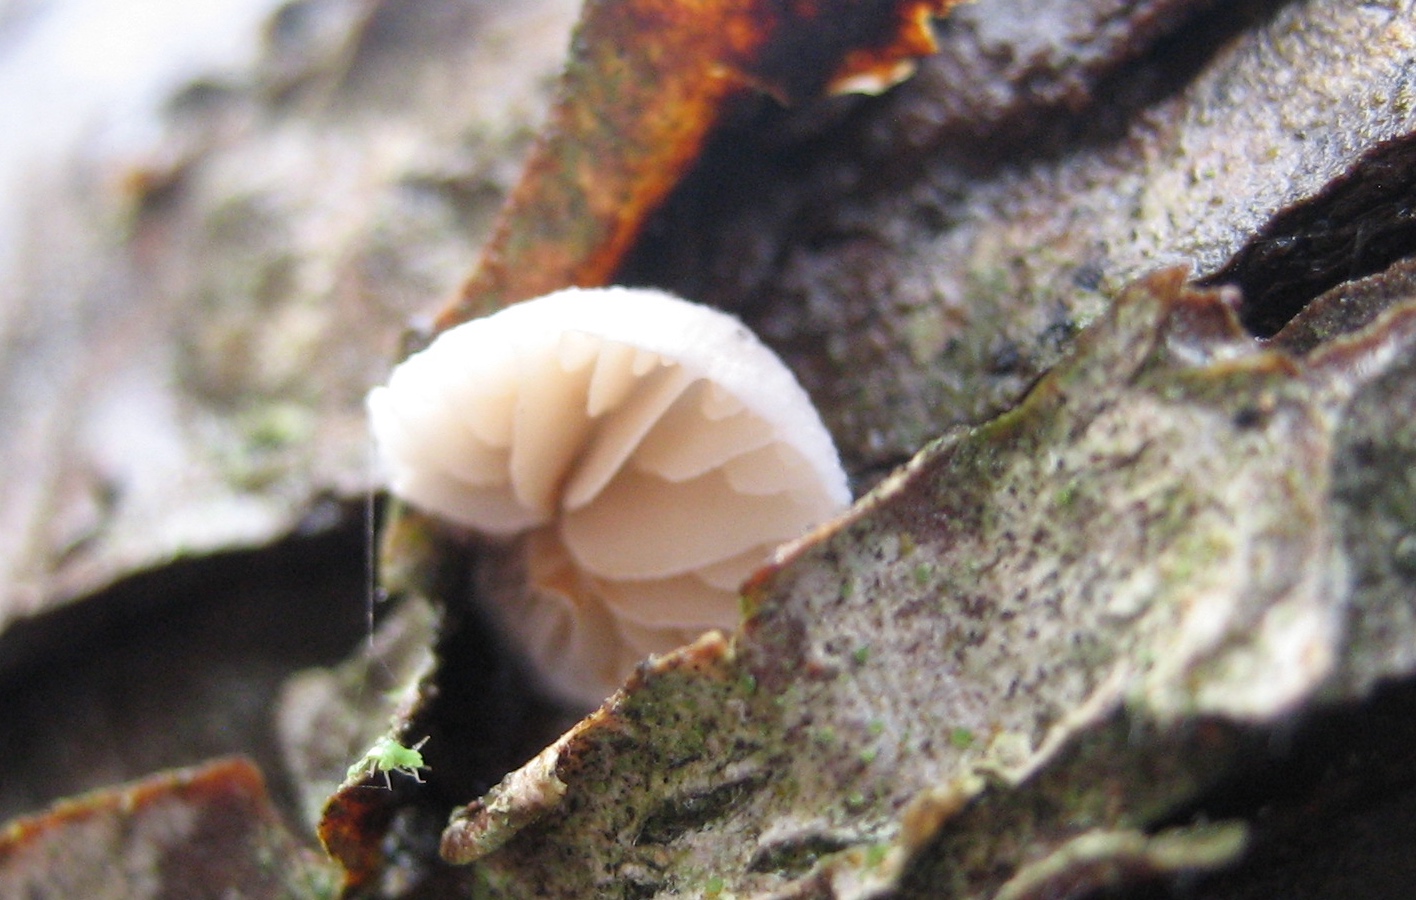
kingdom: Fungi
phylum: Basidiomycota
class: Agaricomycetes
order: Agaricales
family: Crepidotaceae
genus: Crepidotus
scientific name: Crepidotus
